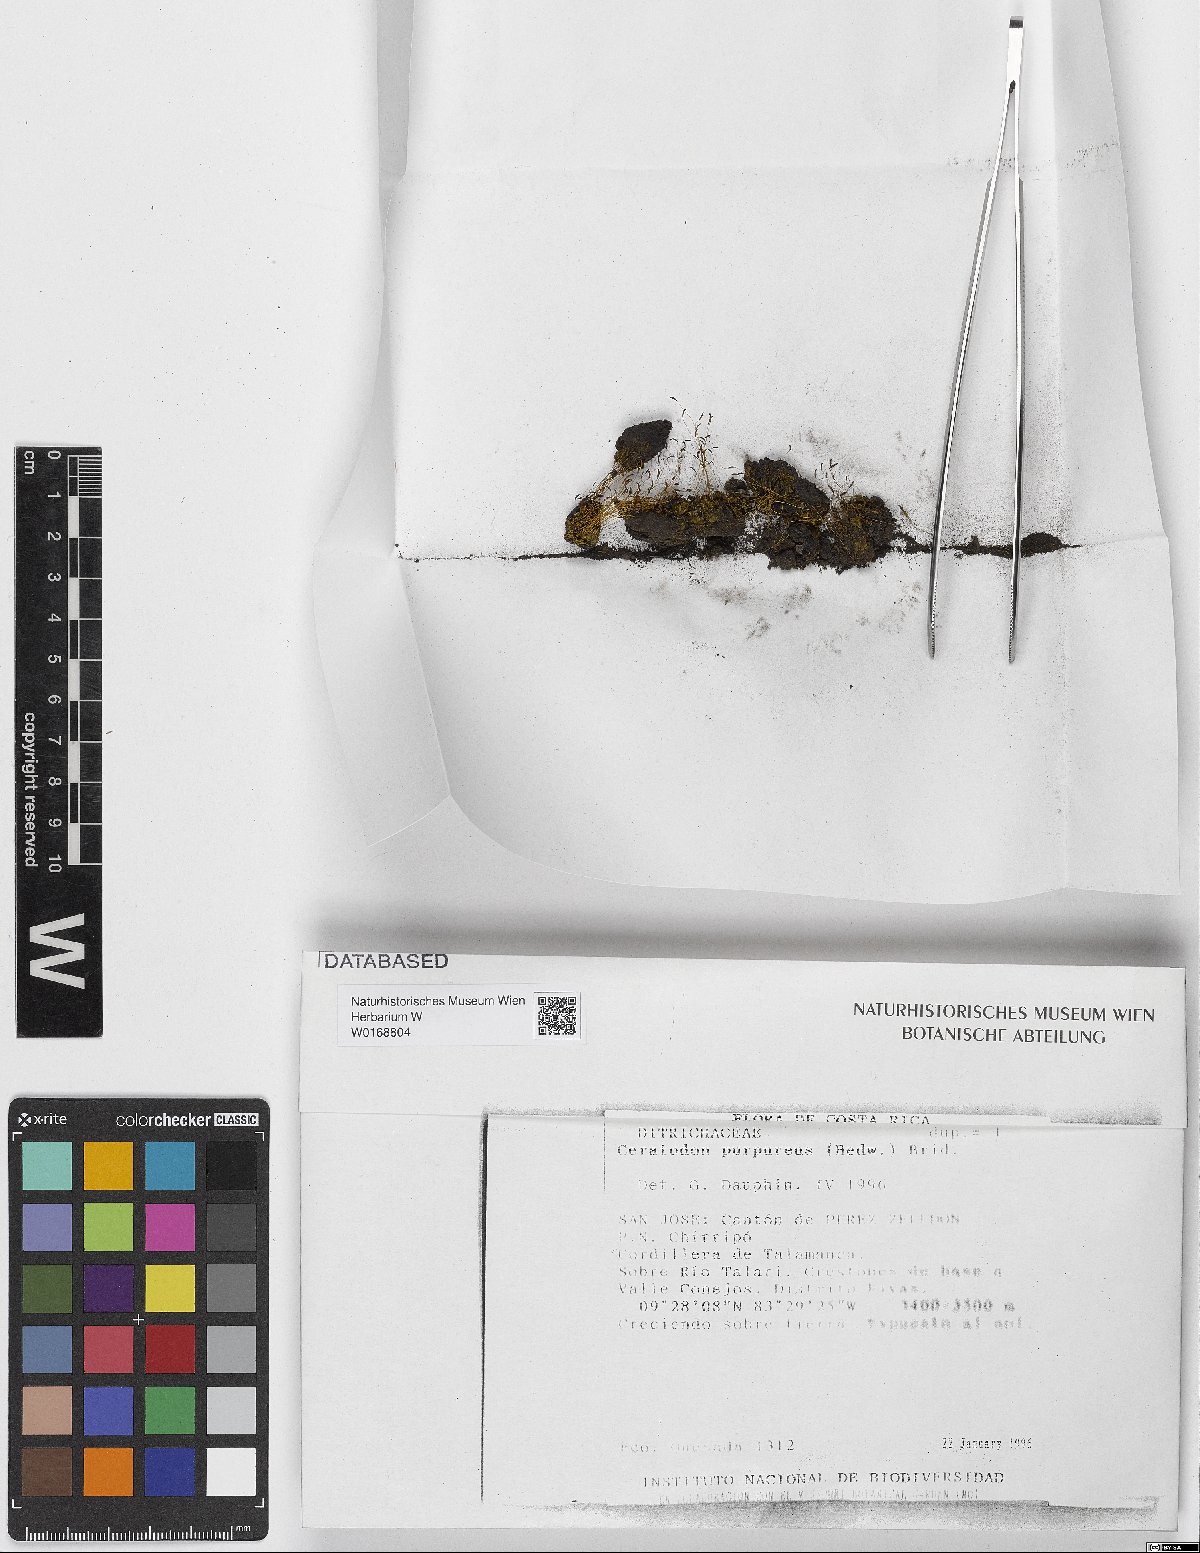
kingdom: Plantae
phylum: Bryophyta
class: Bryopsida
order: Dicranales
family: Ditrichaceae
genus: Ceratodon
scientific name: Ceratodon purpureus
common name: Redshank
